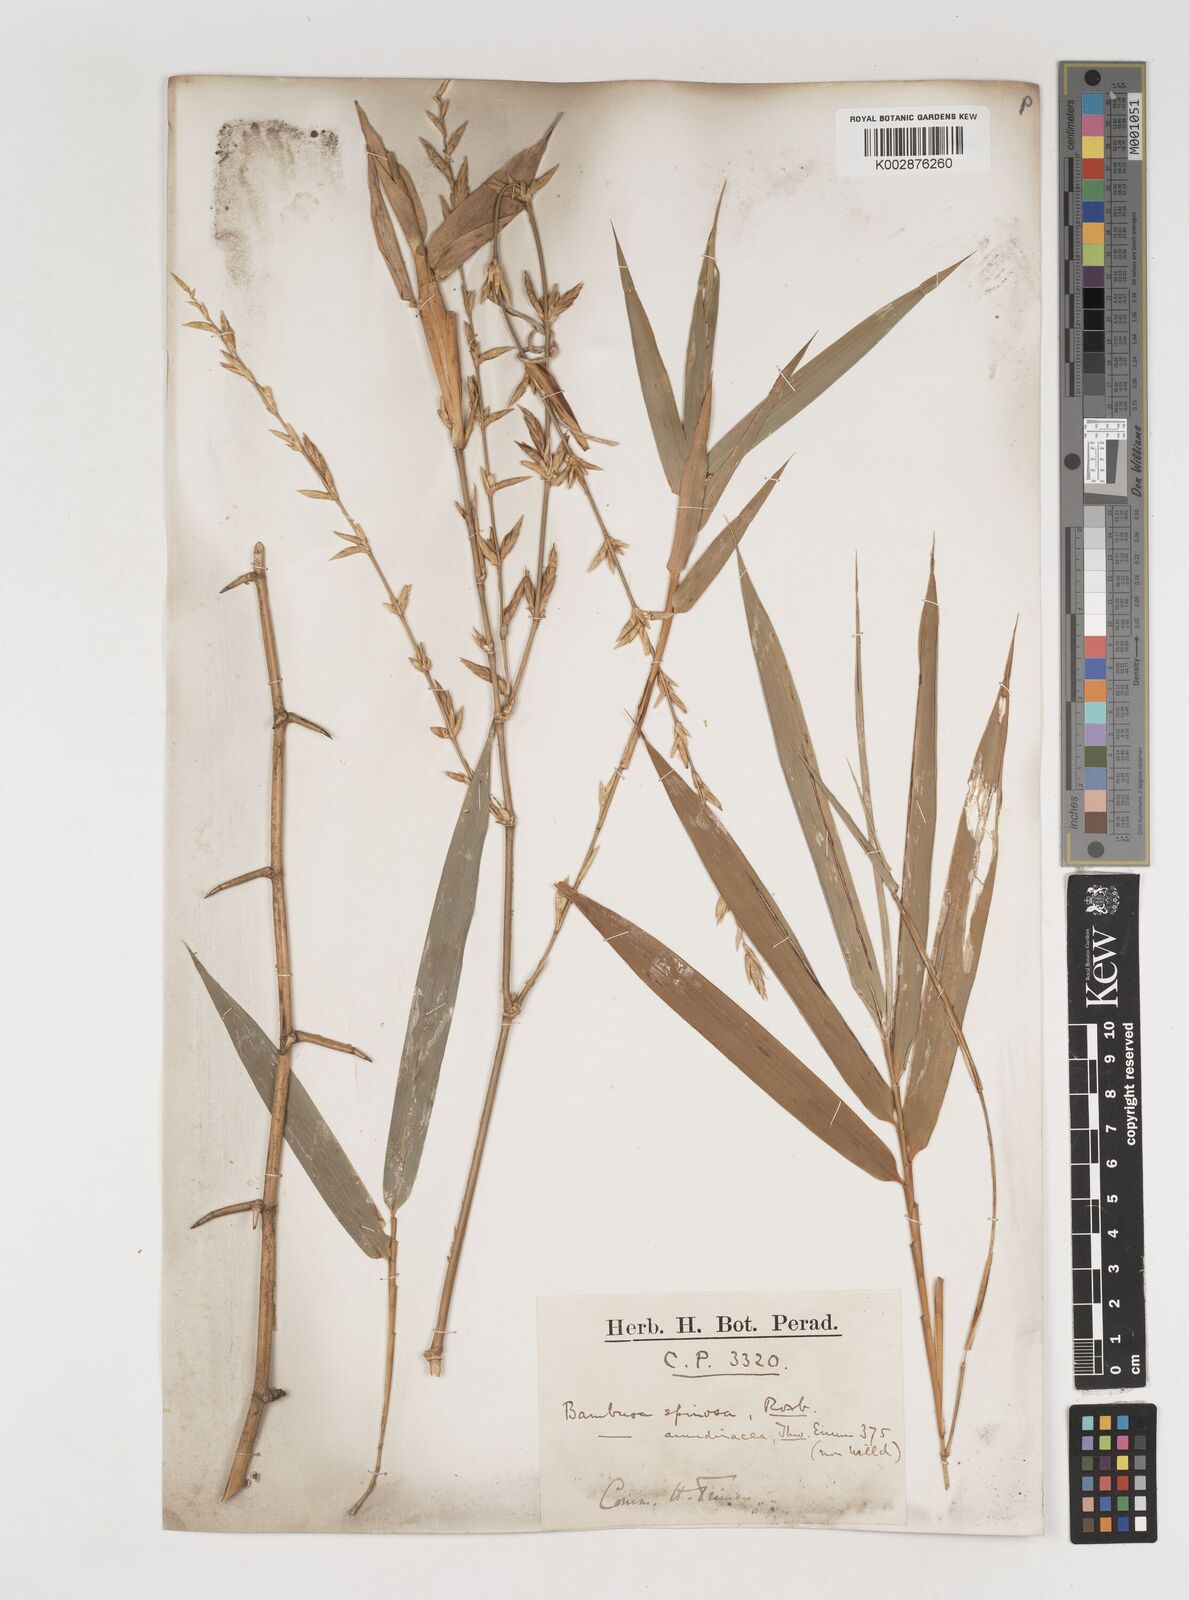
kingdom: Plantae
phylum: Tracheophyta
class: Liliopsida
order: Poales
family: Poaceae
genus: Bambusa
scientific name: Bambusa bambos
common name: Indian thorny bamboo
